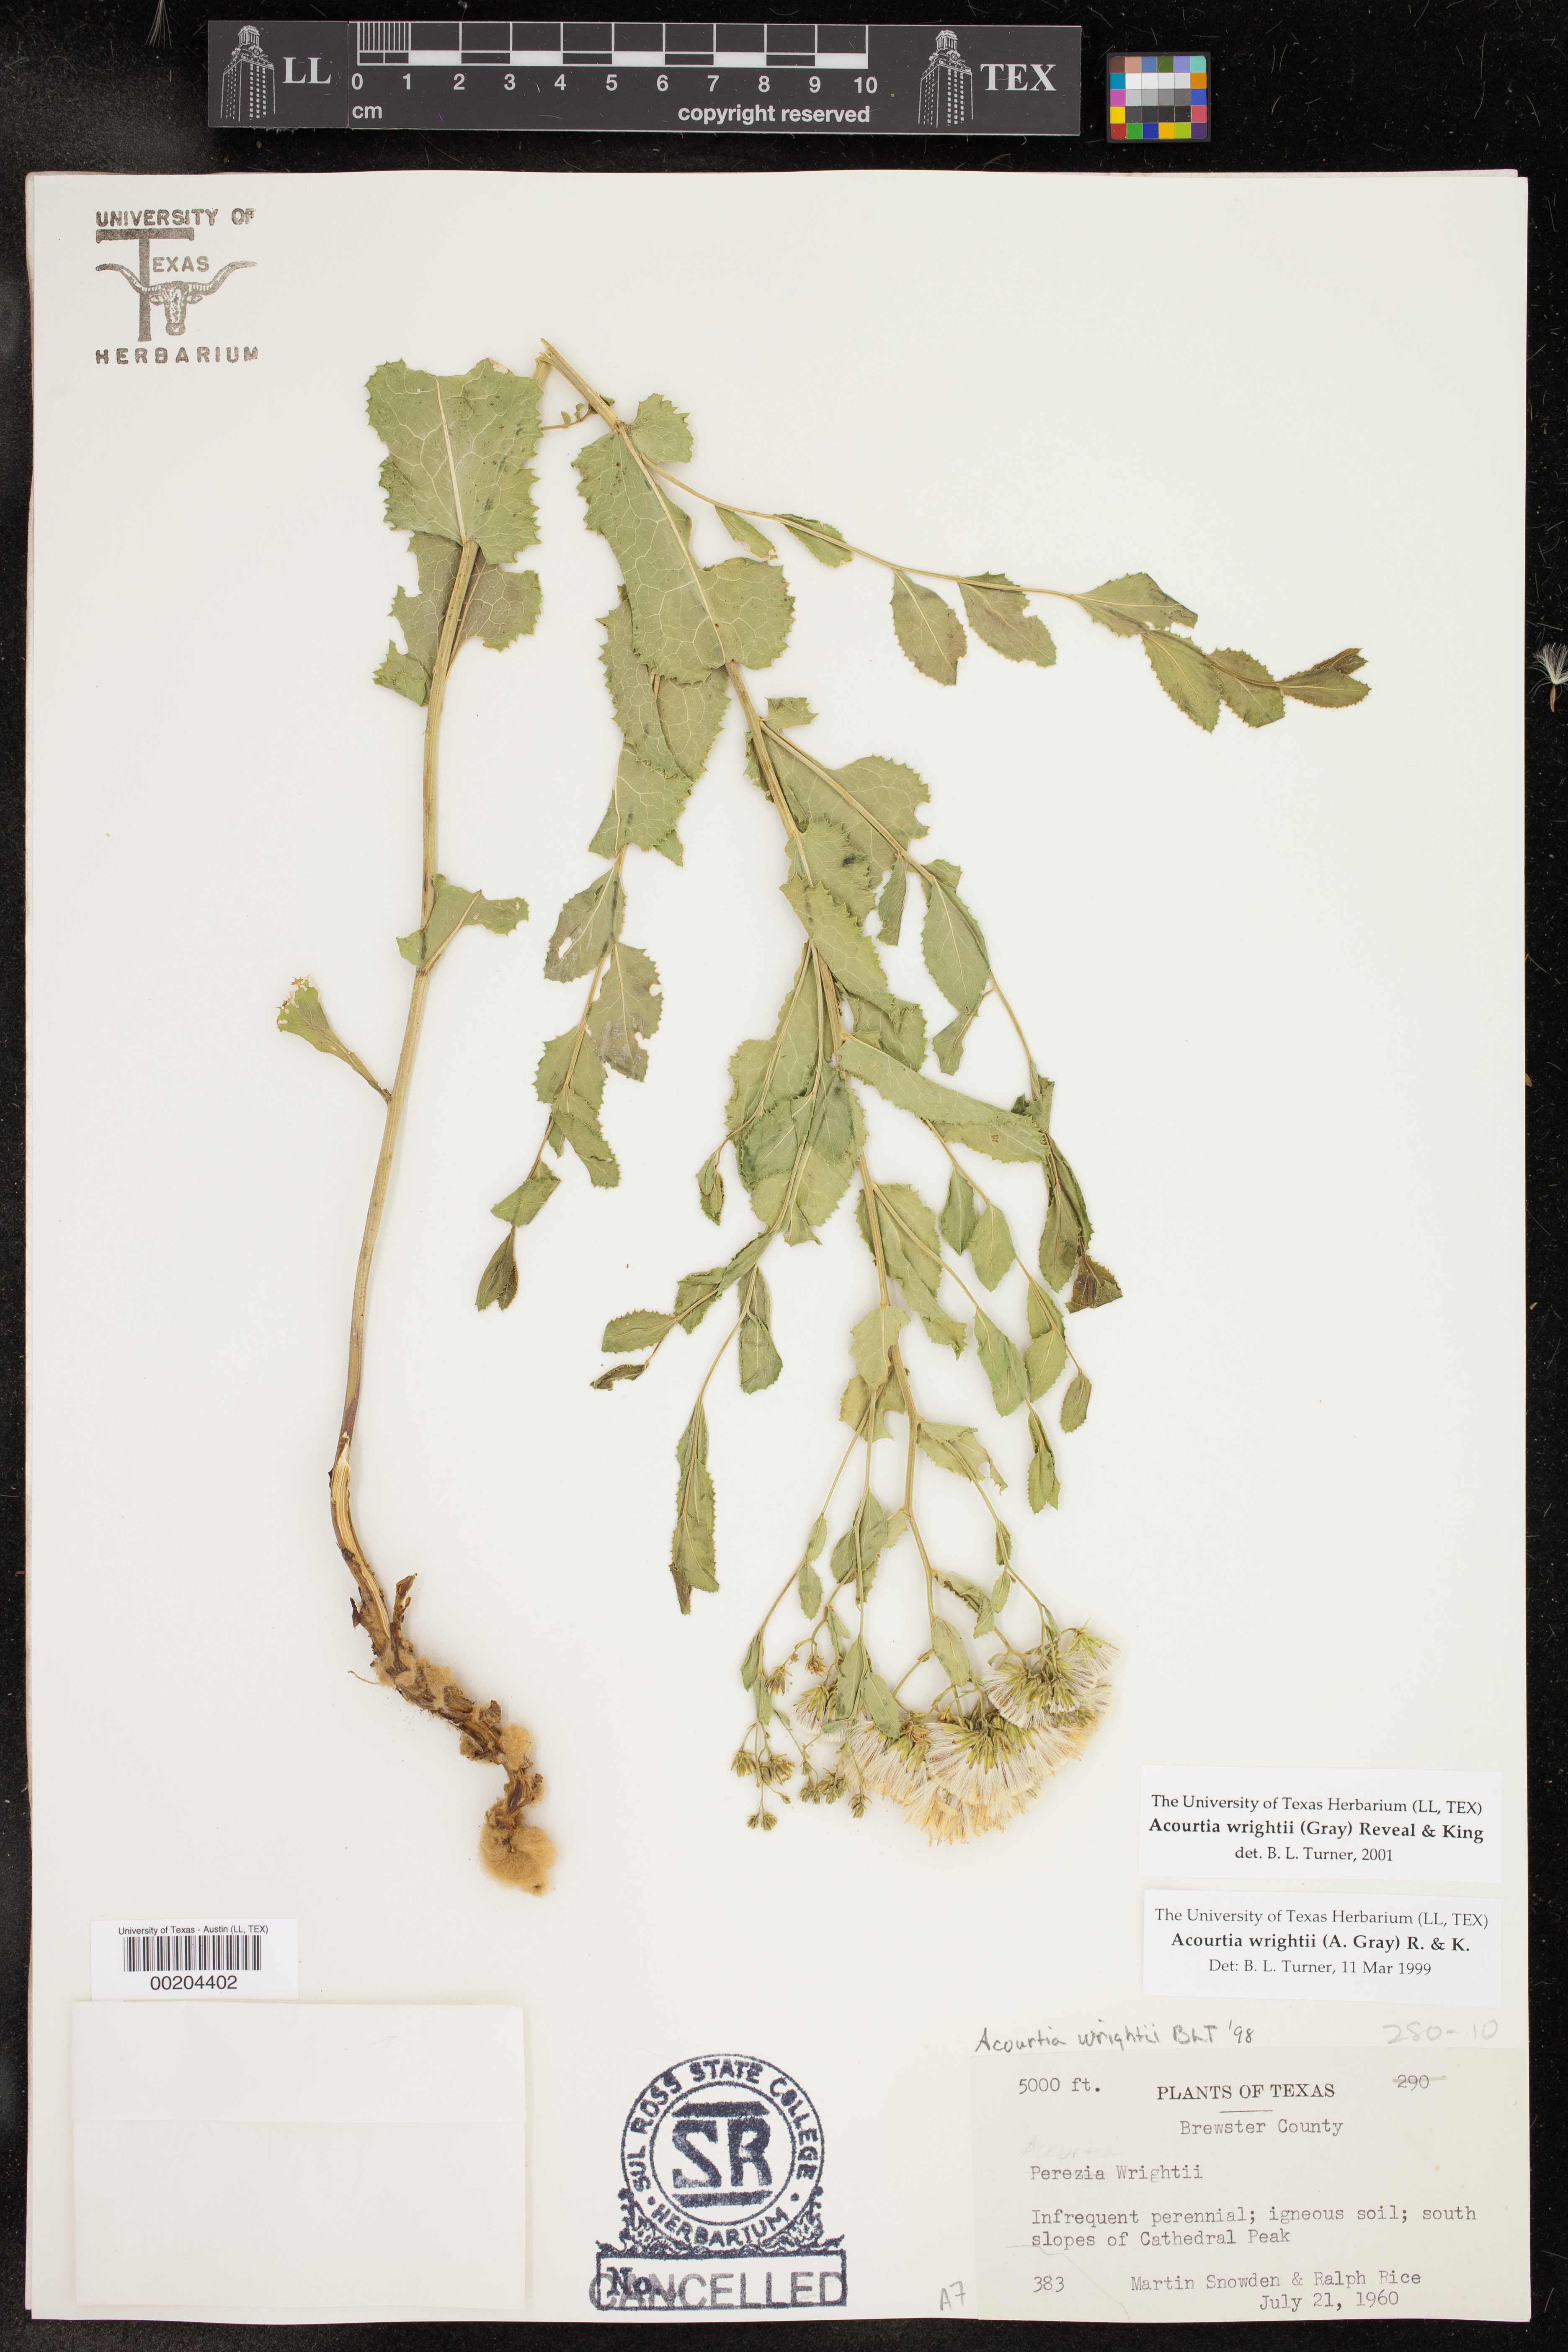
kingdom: Plantae
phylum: Tracheophyta
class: Magnoliopsida
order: Asterales
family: Asteraceae
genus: Acourtia
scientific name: Acourtia wrightii
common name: Brownfoot
